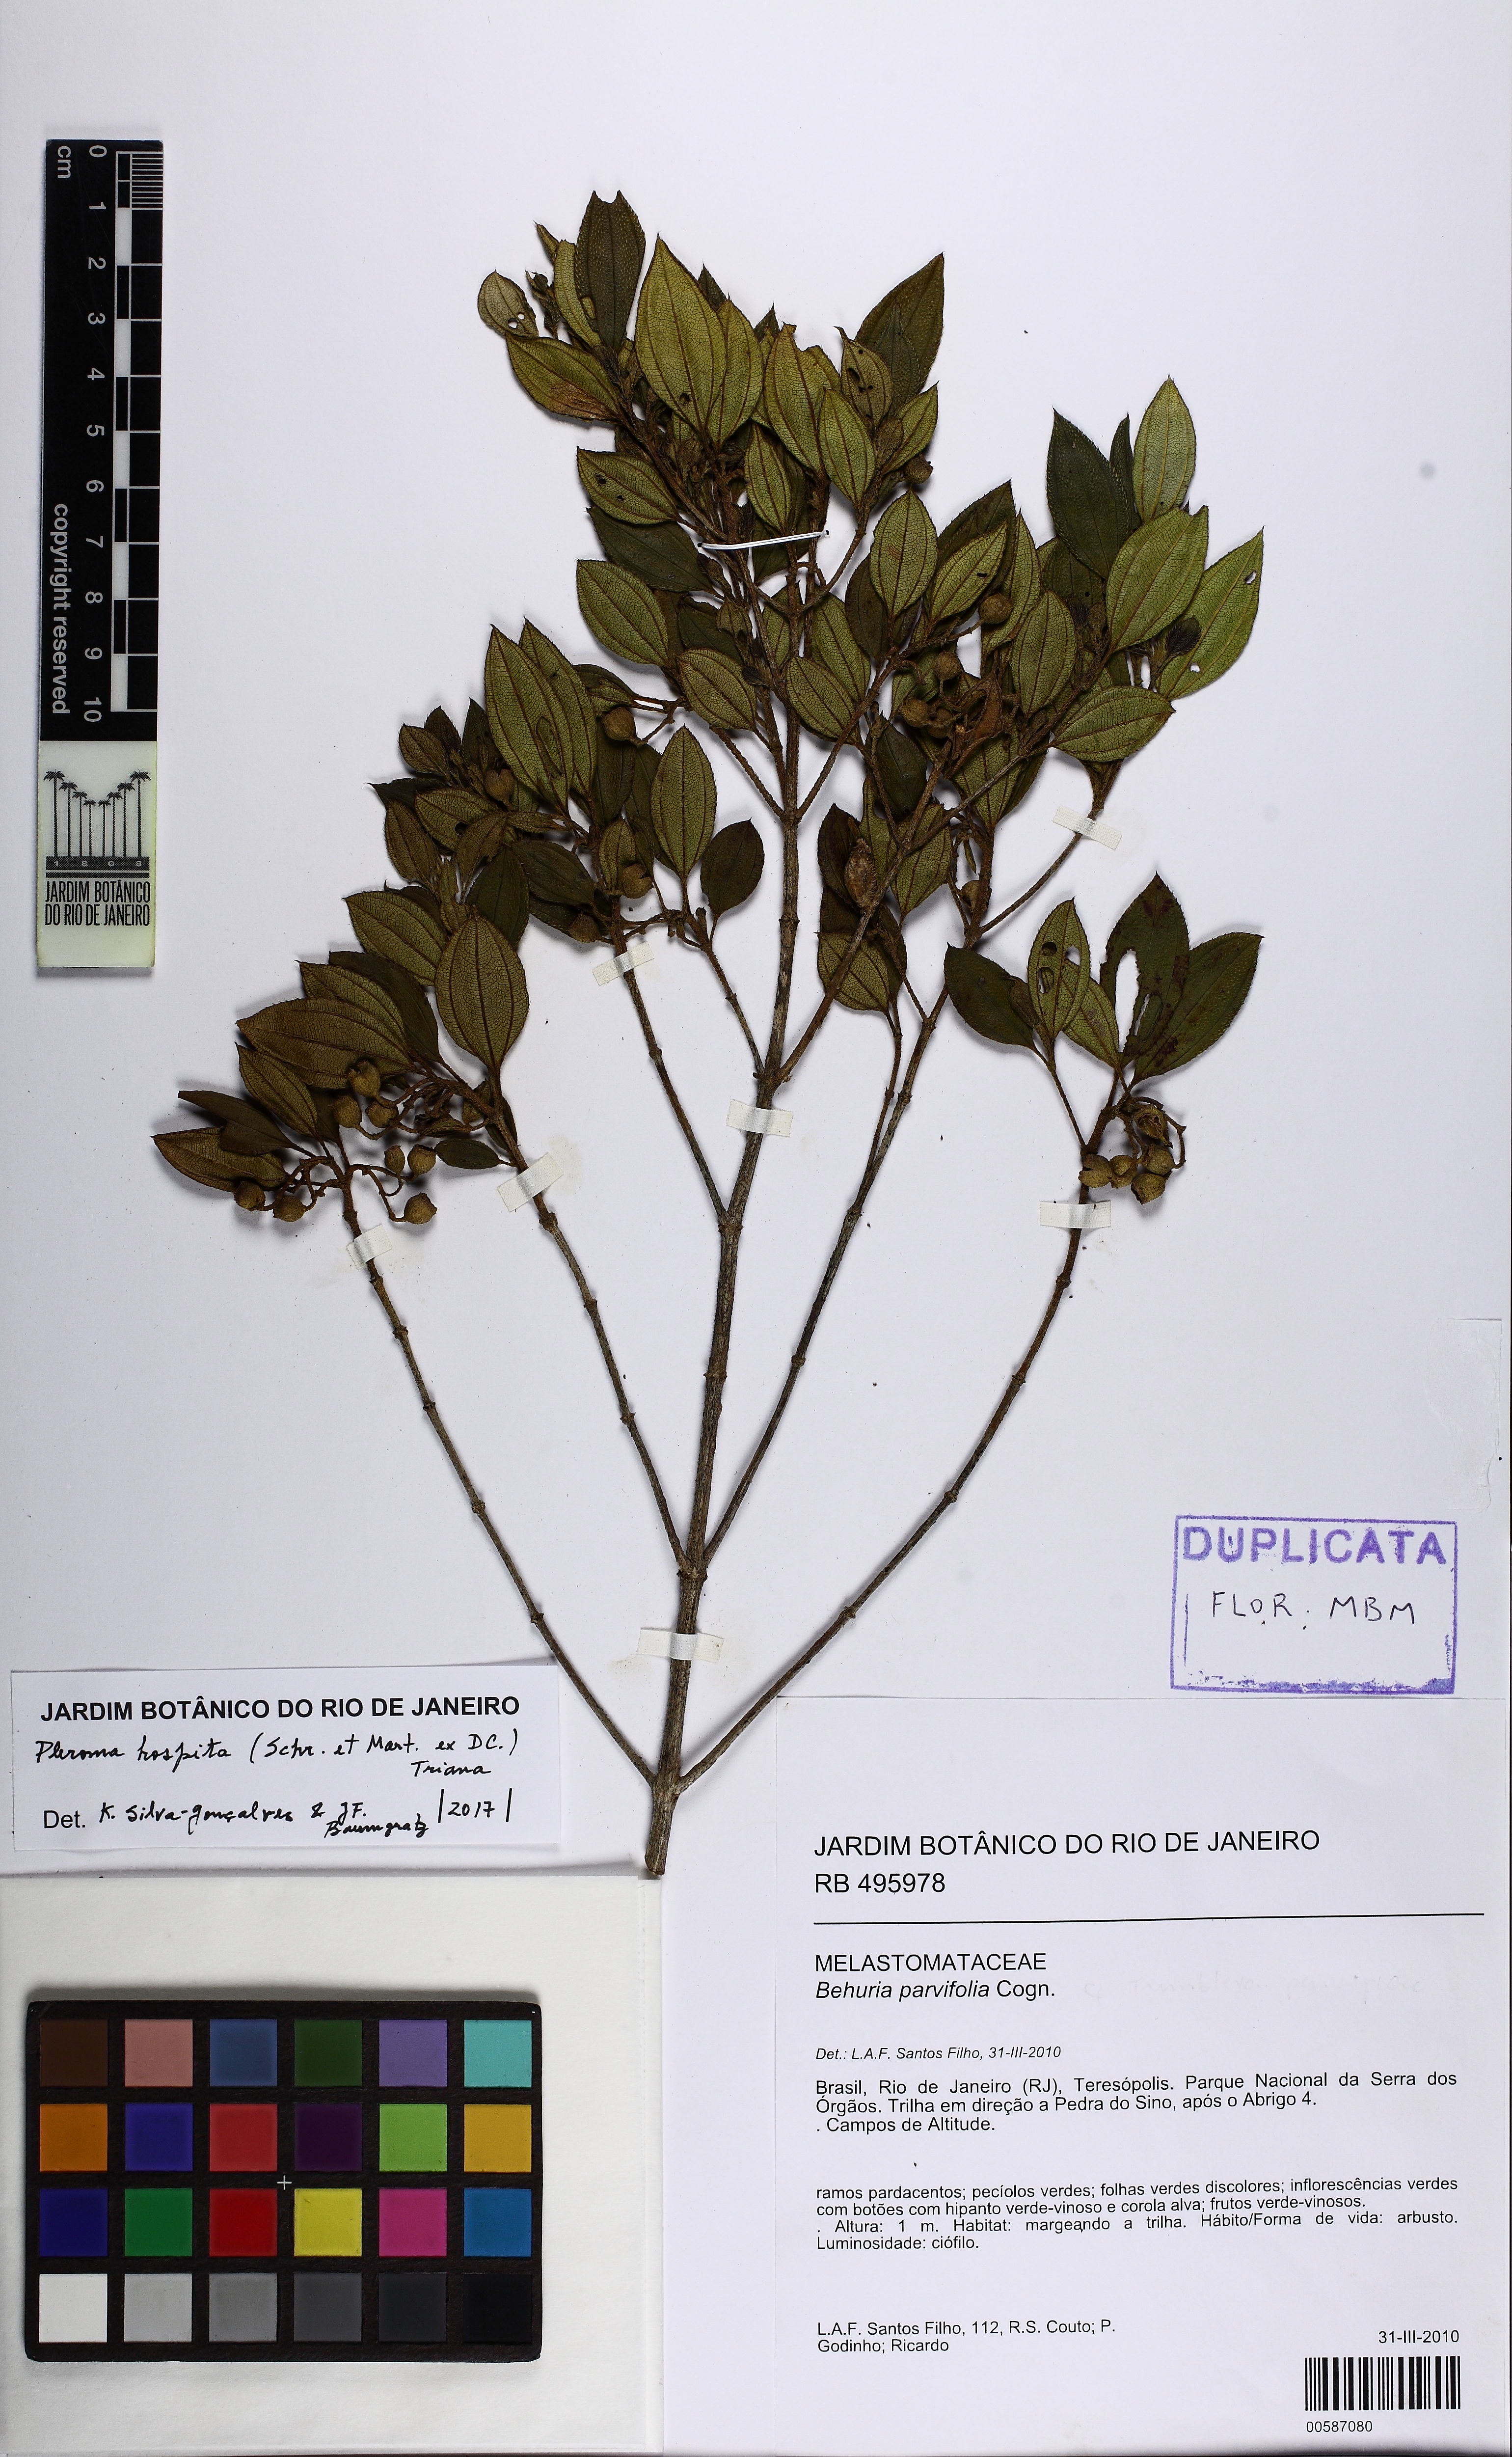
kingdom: Plantae
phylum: Tracheophyta
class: Magnoliopsida
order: Myrtales
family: Melastomataceae
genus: Pleroma
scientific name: Pleroma hospitum
